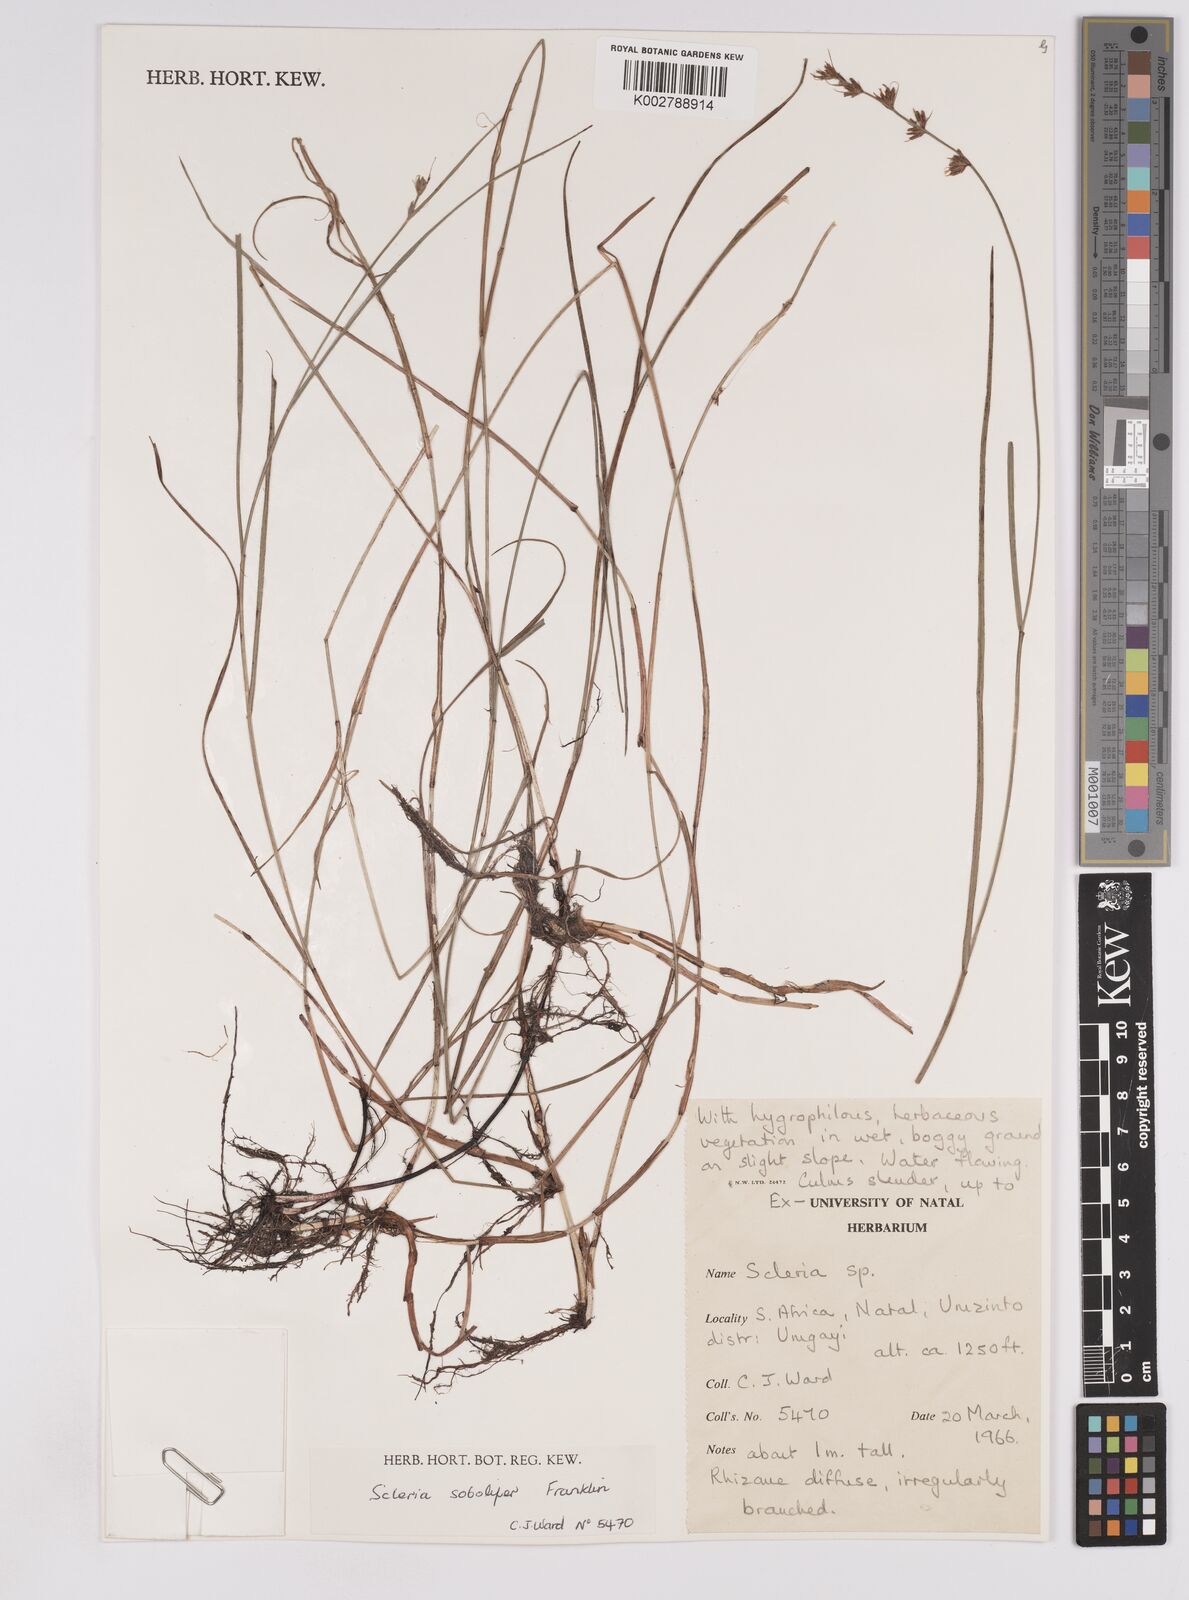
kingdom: Plantae
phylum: Tracheophyta
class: Liliopsida
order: Poales
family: Cyperaceae
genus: Scleria
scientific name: Scleria sobolifera
